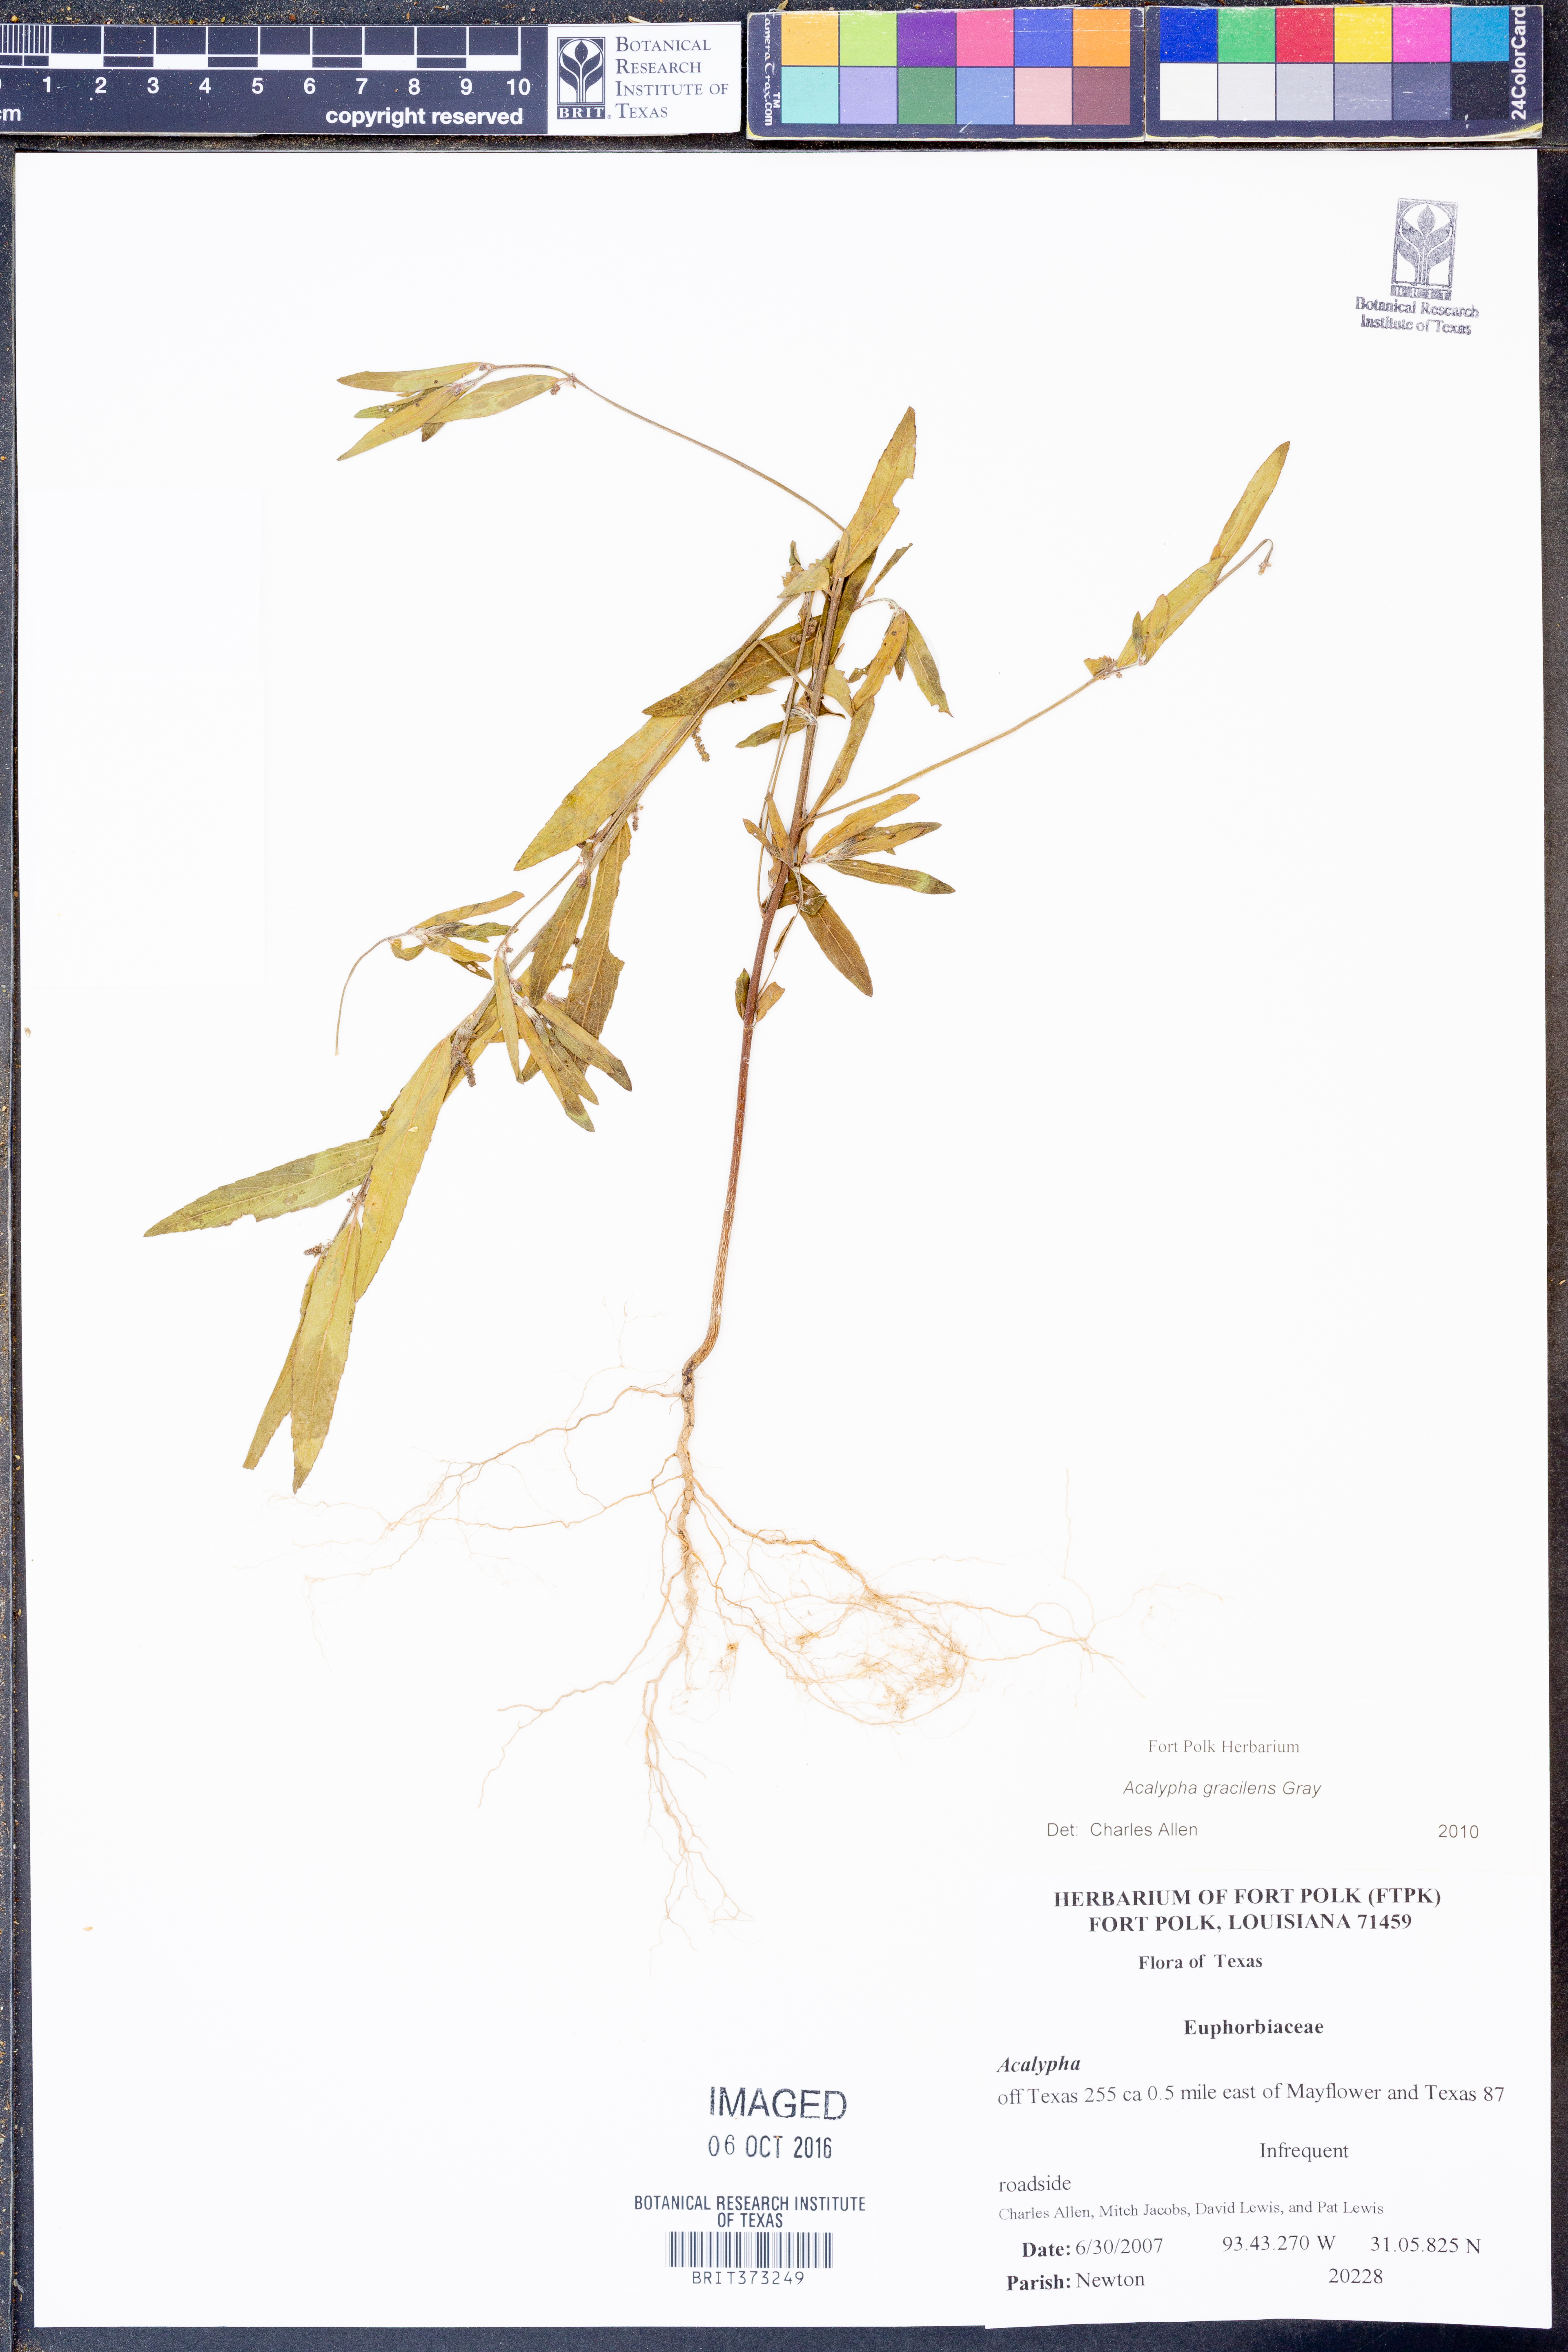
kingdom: Plantae
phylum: Tracheophyta
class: Magnoliopsida
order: Malpighiales
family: Euphorbiaceae
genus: Acalypha
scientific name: Acalypha gracilens
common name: Slender three-seeded mercury
